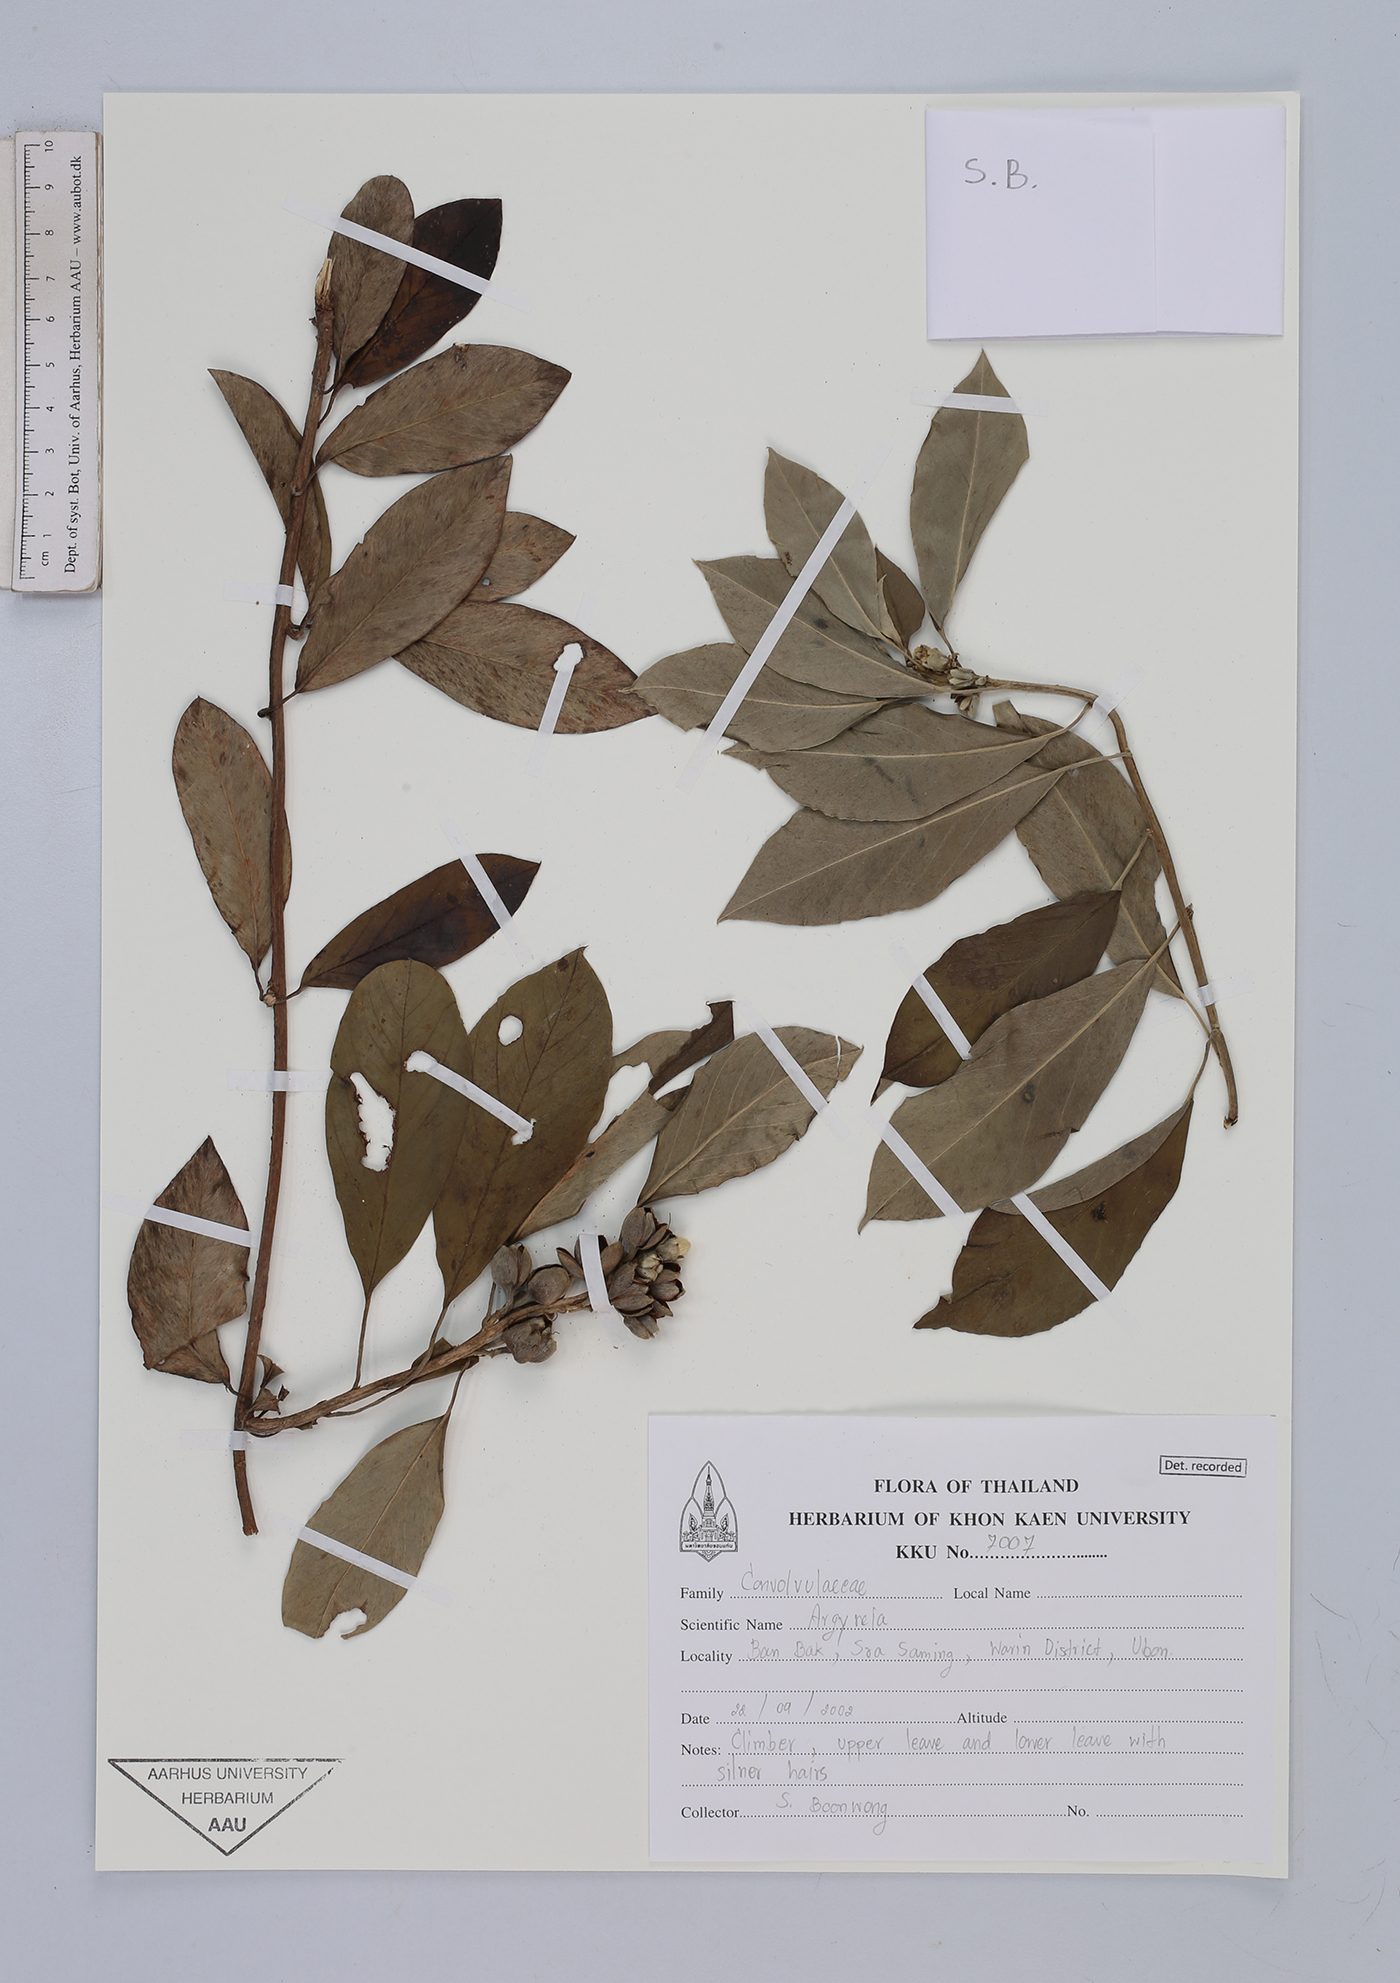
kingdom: Plantae
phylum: Tracheophyta
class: Magnoliopsida
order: Solanales
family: Convolvulaceae
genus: Argyreia
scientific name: Argyreia
